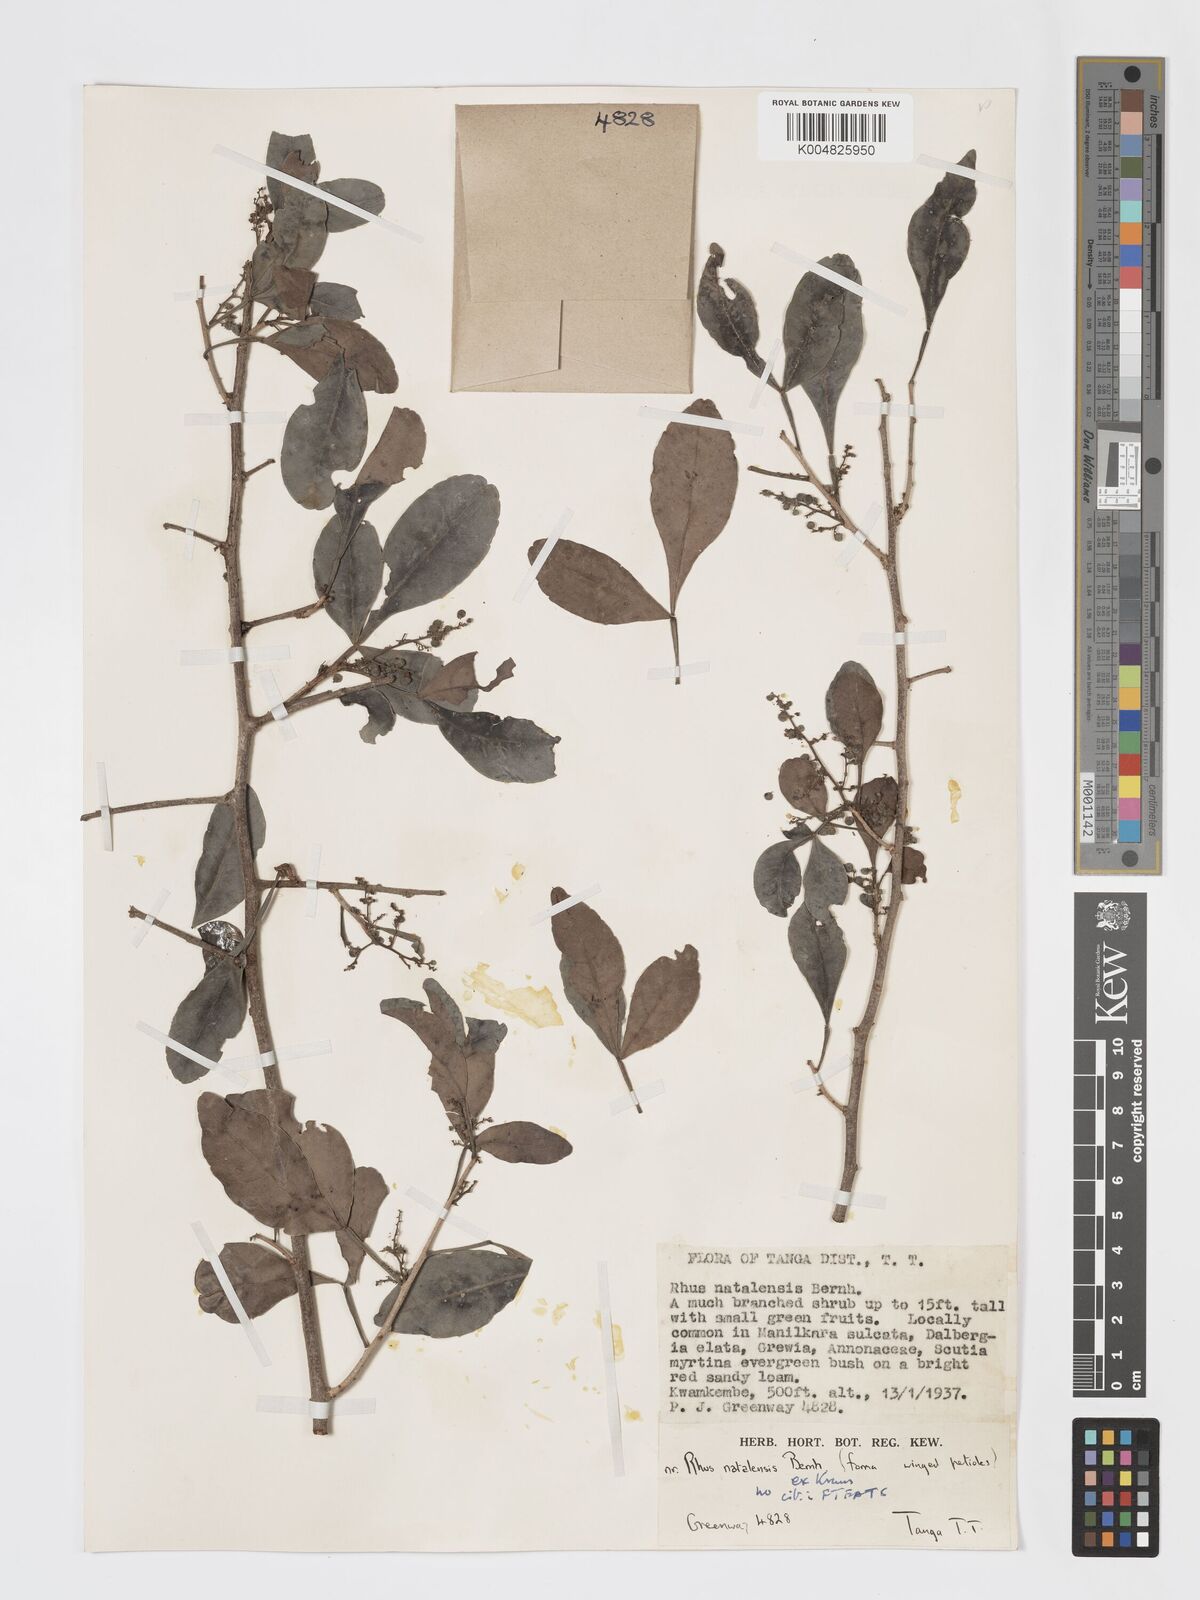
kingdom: Plantae
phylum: Tracheophyta
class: Magnoliopsida
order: Sapindales
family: Anacardiaceae
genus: Searsia
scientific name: Searsia natalensis
